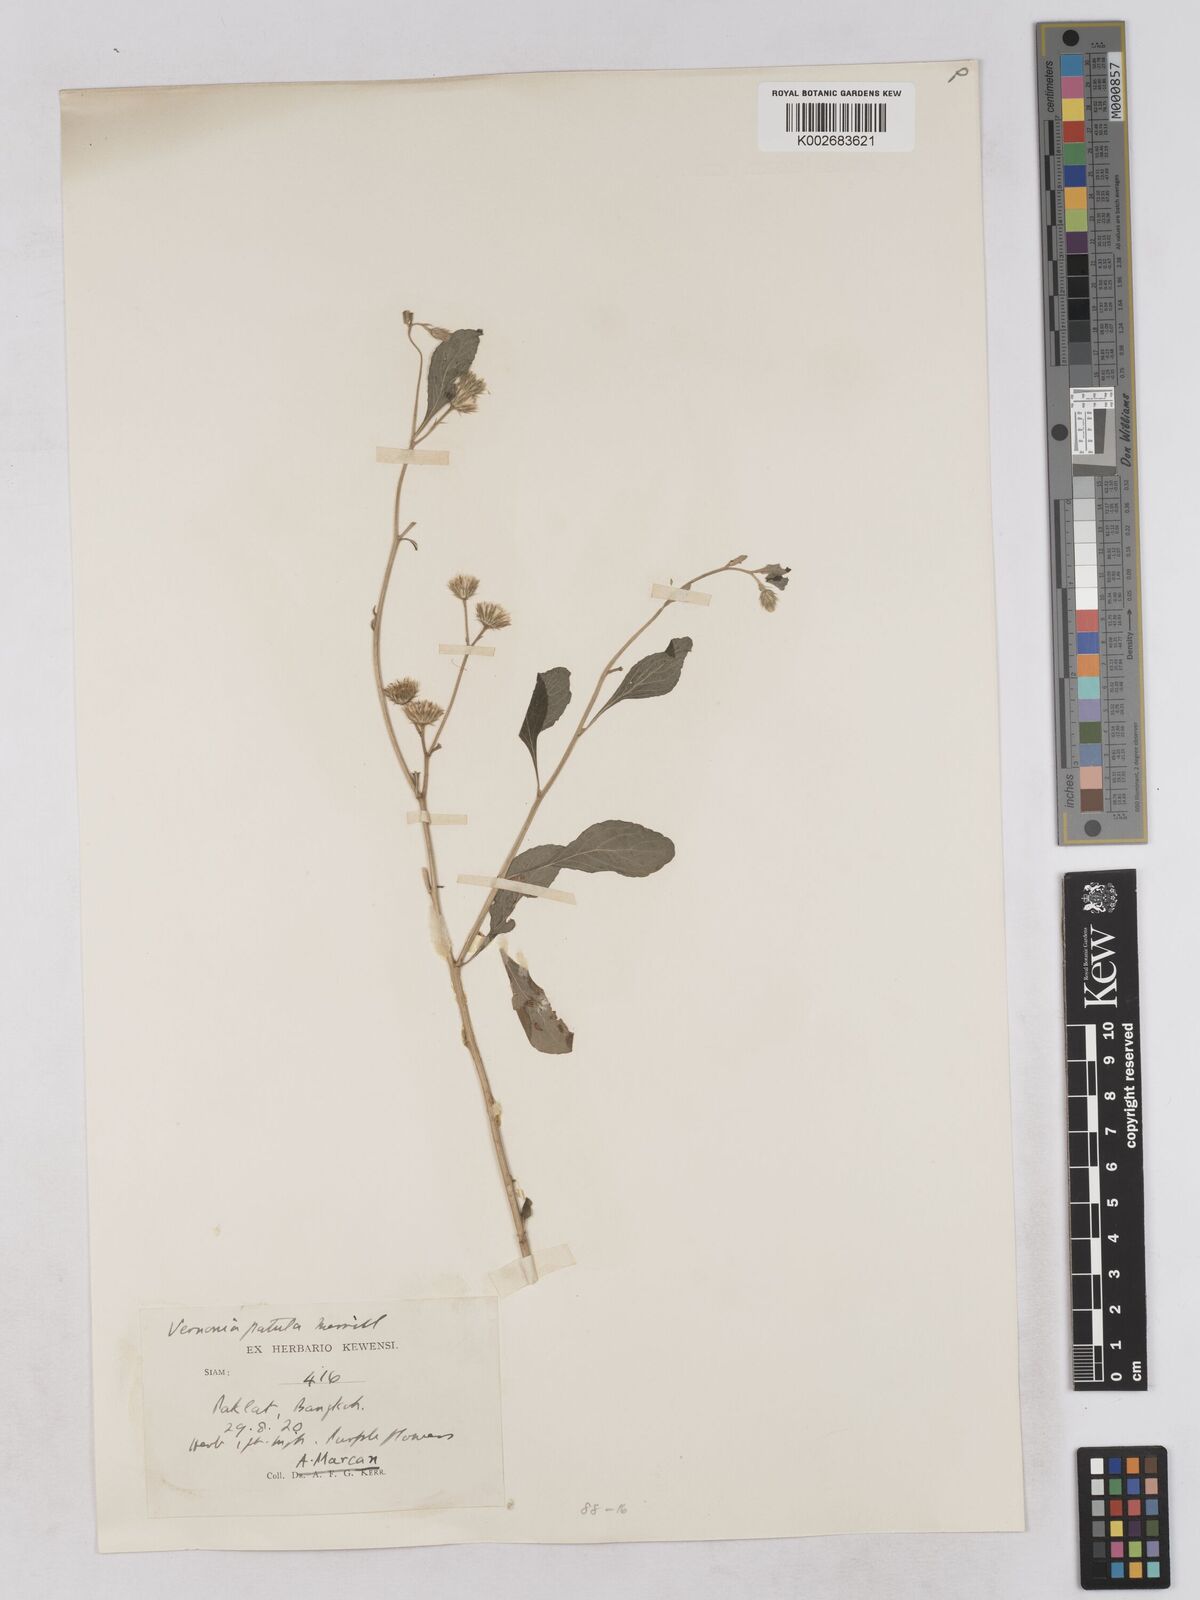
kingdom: Plantae
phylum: Tracheophyta
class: Magnoliopsida
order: Asterales
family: Asteraceae
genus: Cyanthillium
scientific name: Cyanthillium patulum
